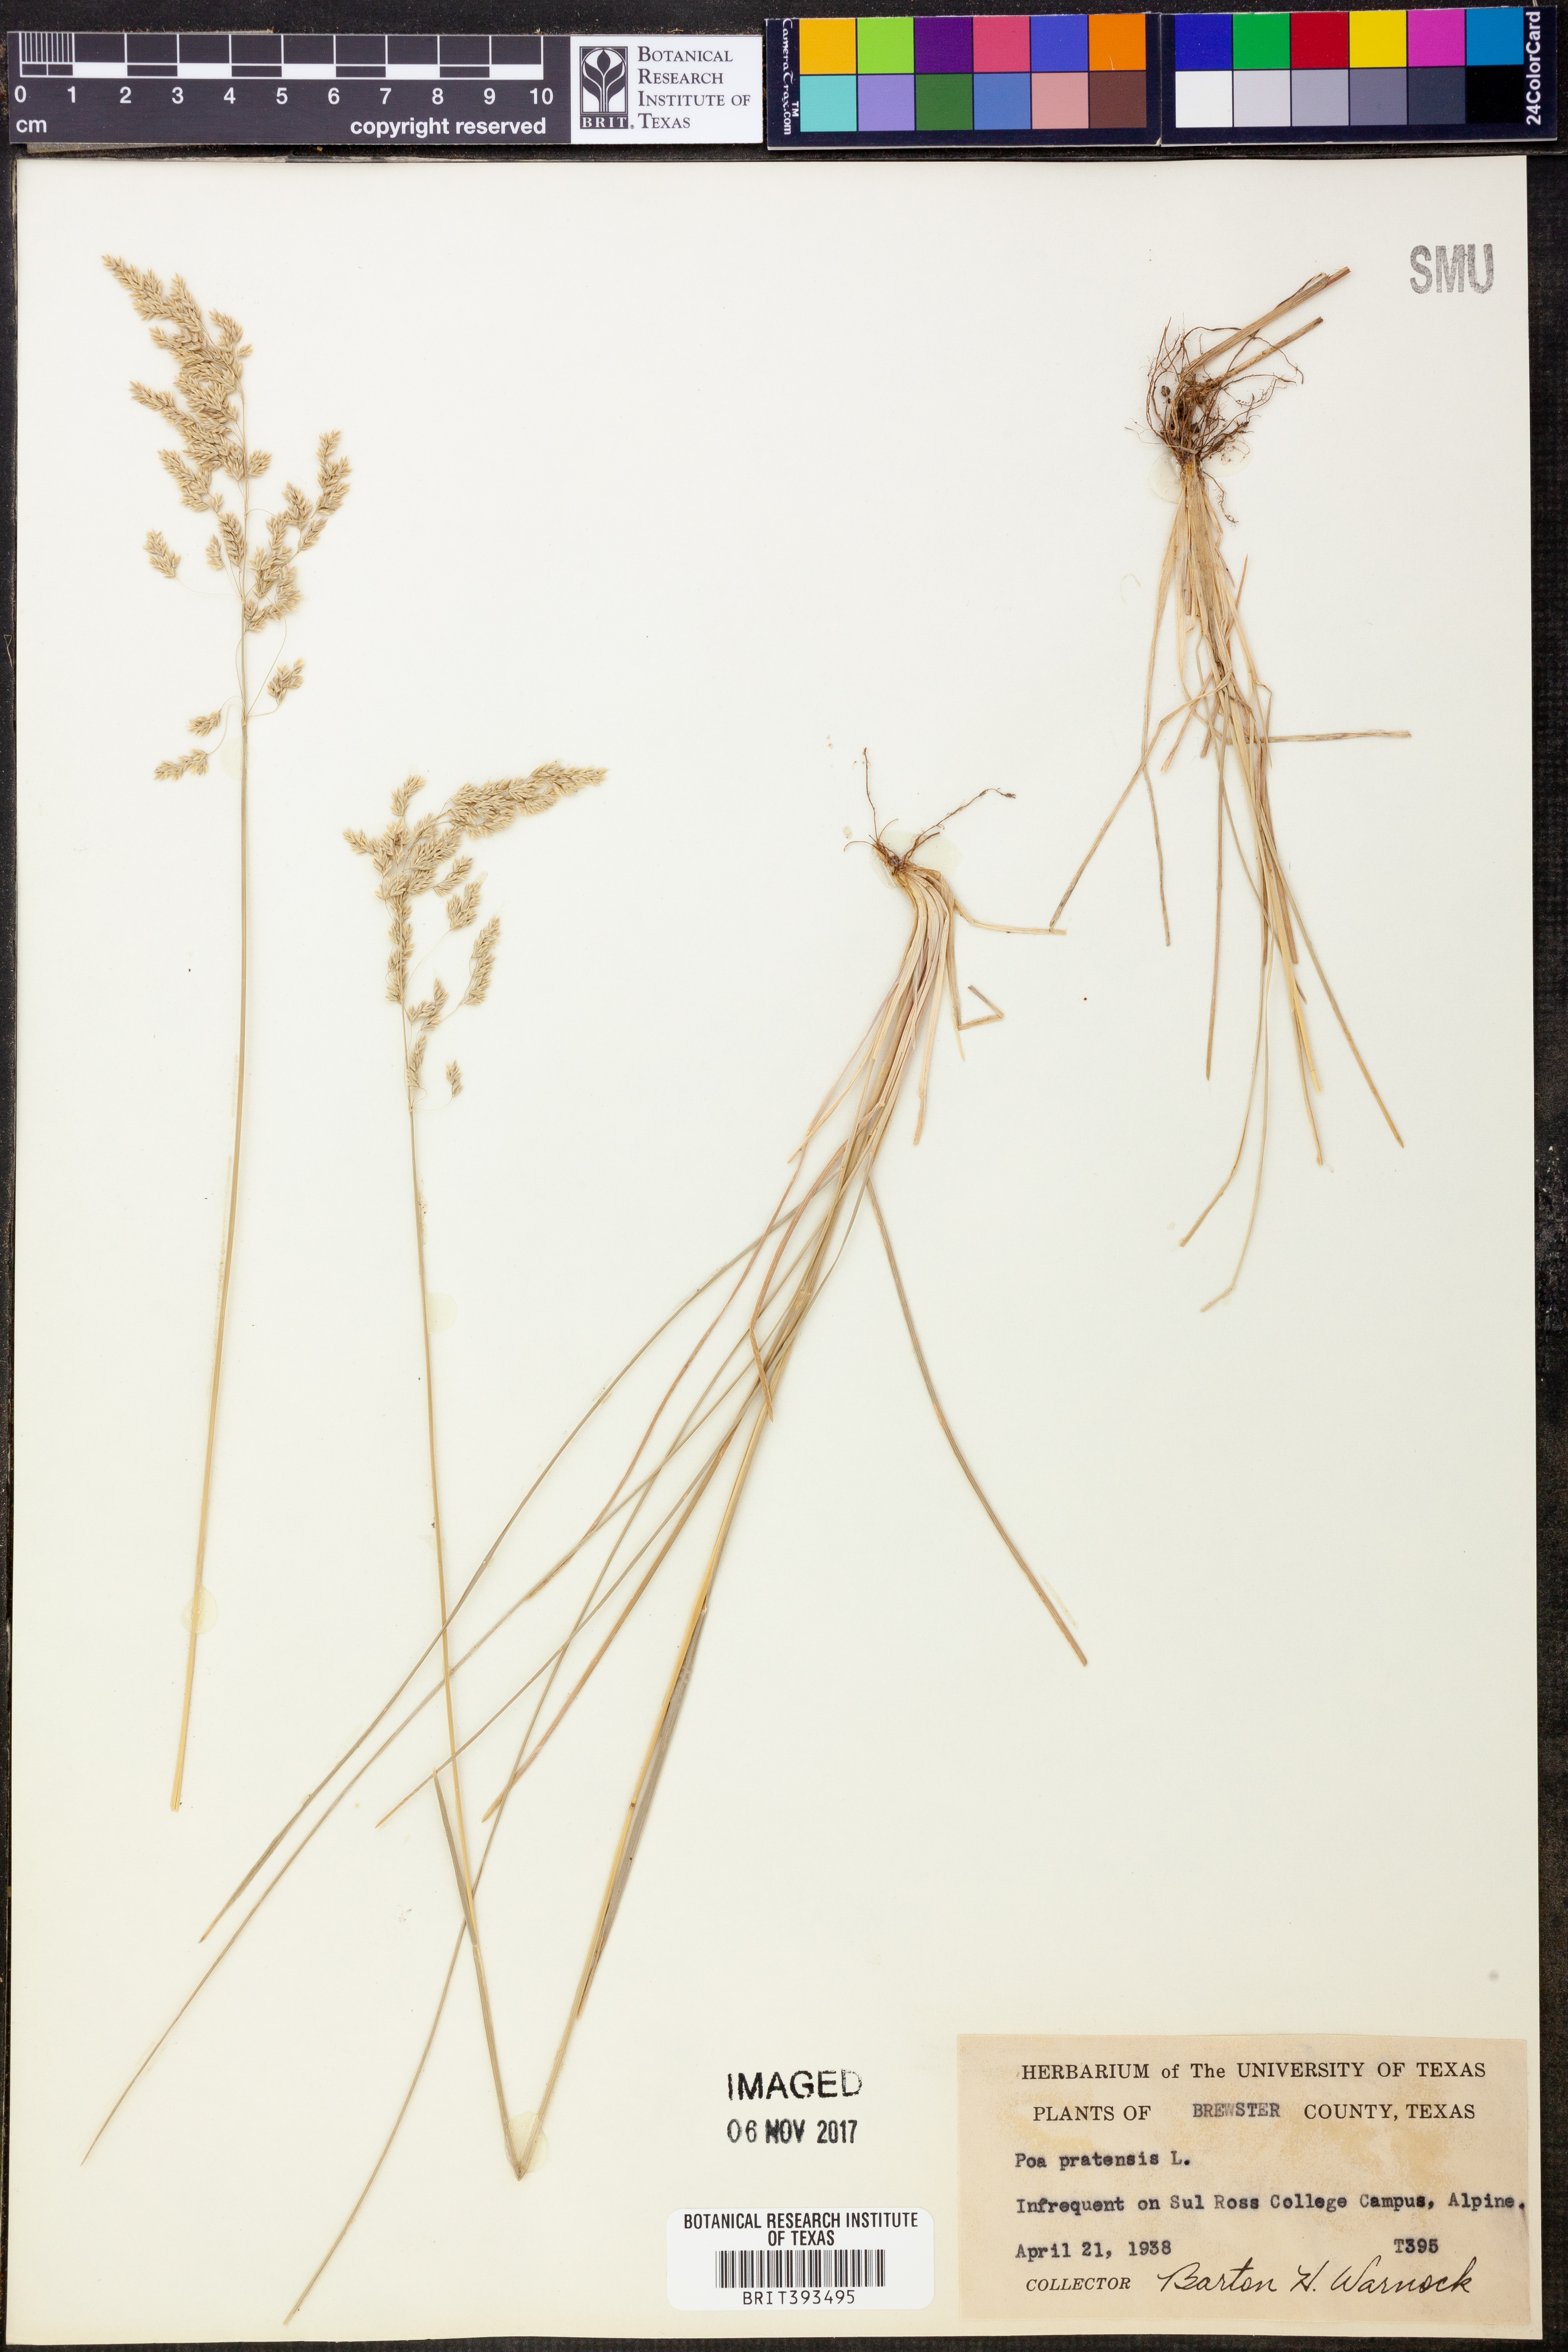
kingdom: Plantae
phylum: Tracheophyta
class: Liliopsida
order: Poales
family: Poaceae
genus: Poa
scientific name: Poa pratensis
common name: Kentucky bluegrass
